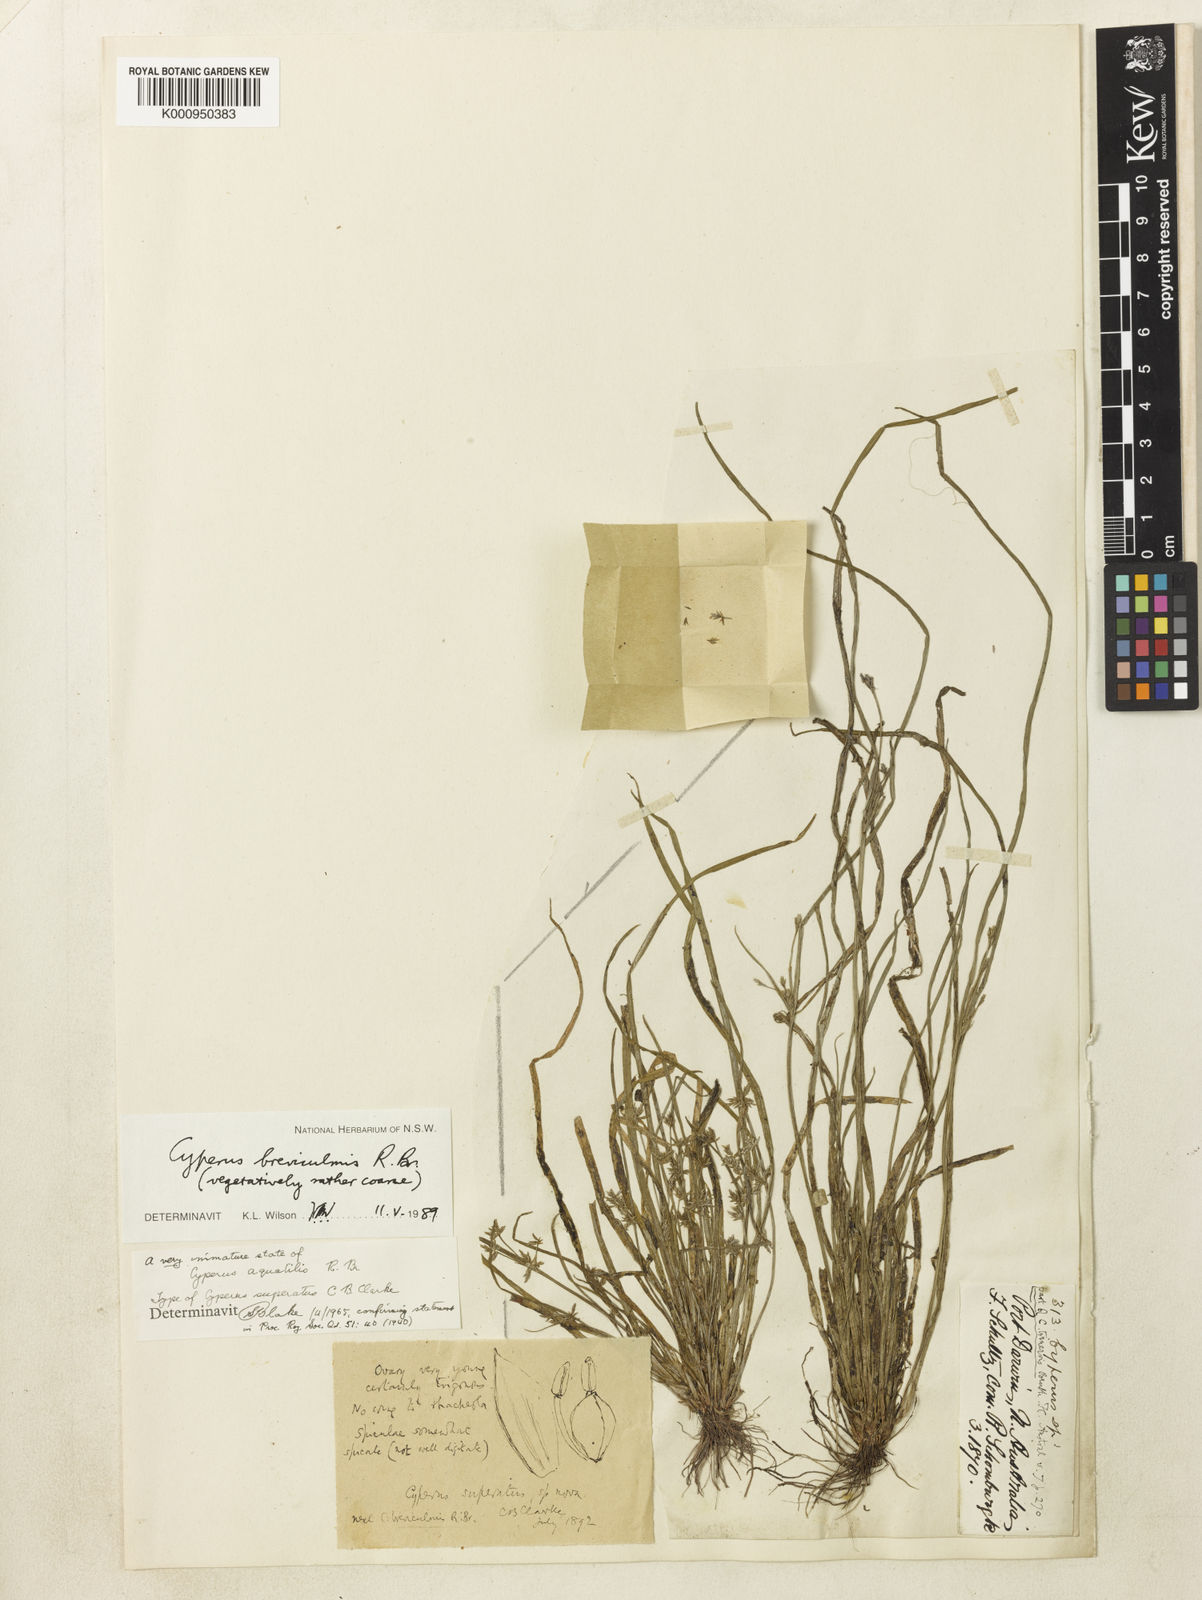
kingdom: Plantae
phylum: Tracheophyta
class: Liliopsida
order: Poales
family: Cyperaceae
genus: Cyperus
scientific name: Cyperus trinervis
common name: Australian flatsedge
